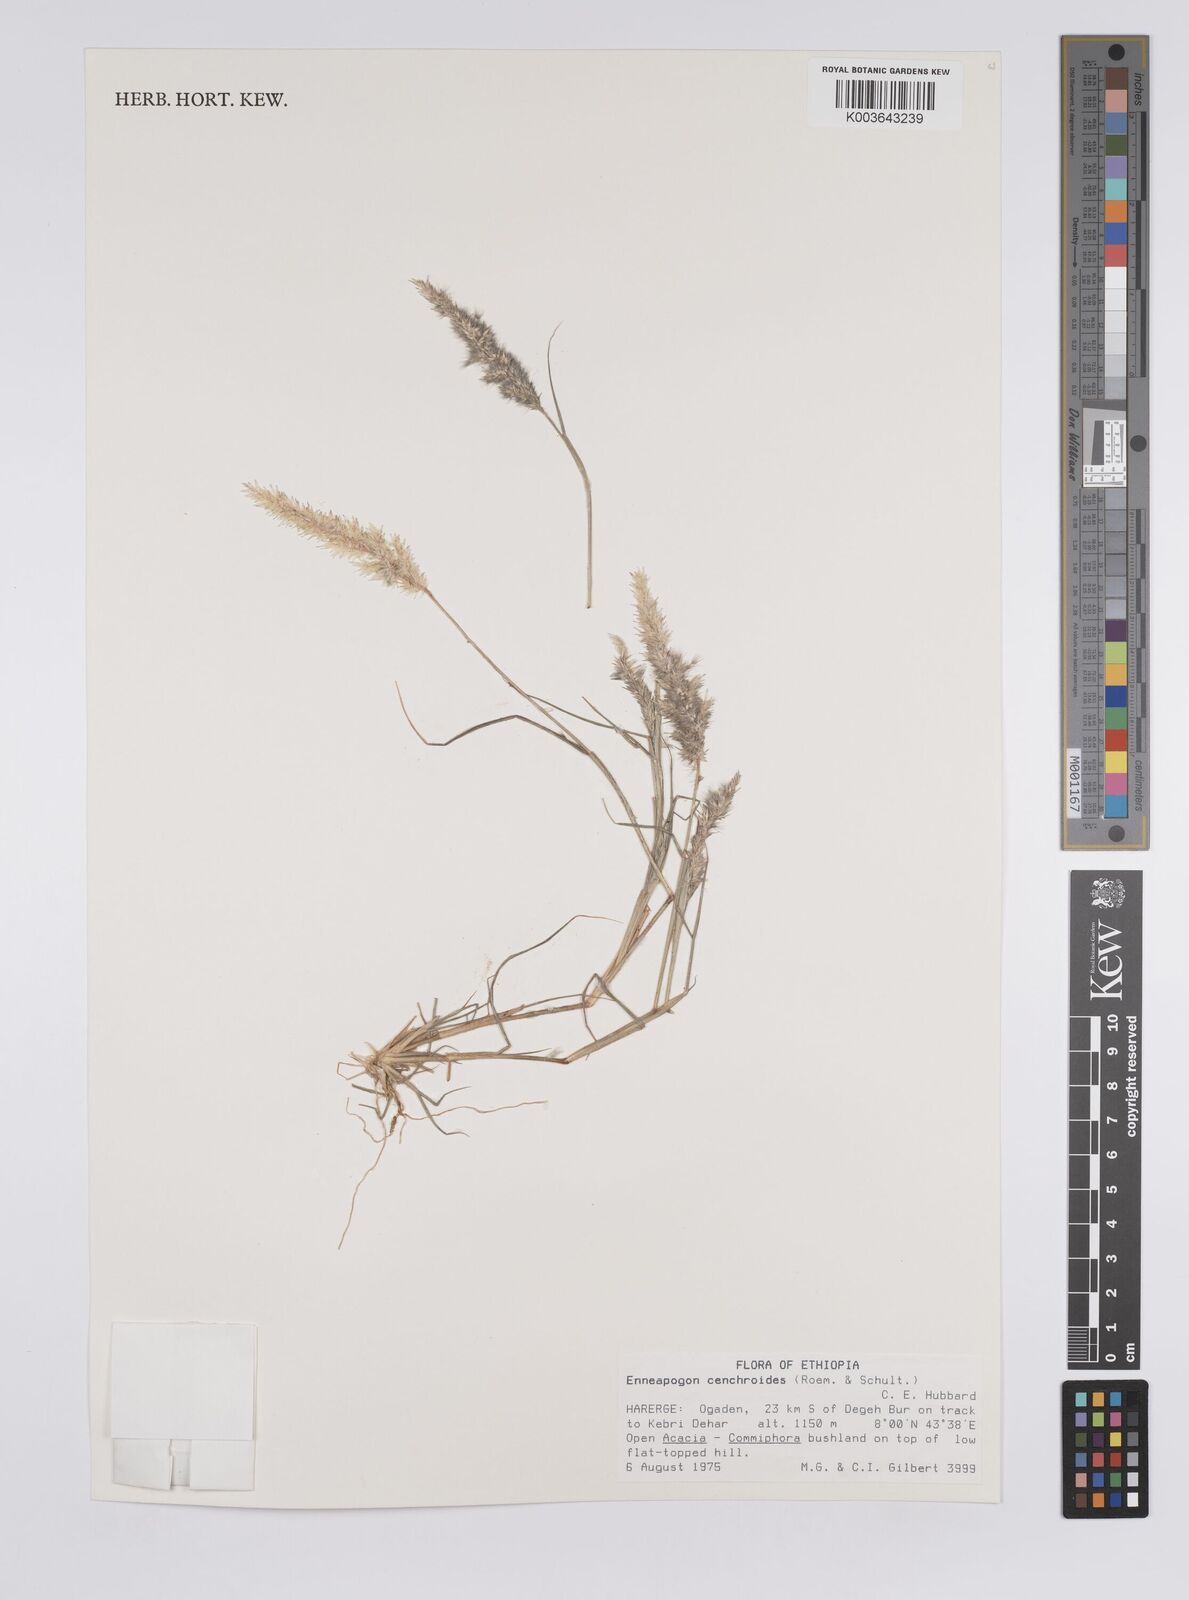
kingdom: Plantae
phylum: Tracheophyta
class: Liliopsida
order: Poales
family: Poaceae
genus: Enneapogon
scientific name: Enneapogon cenchroides
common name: Soft feather pappusgrass
